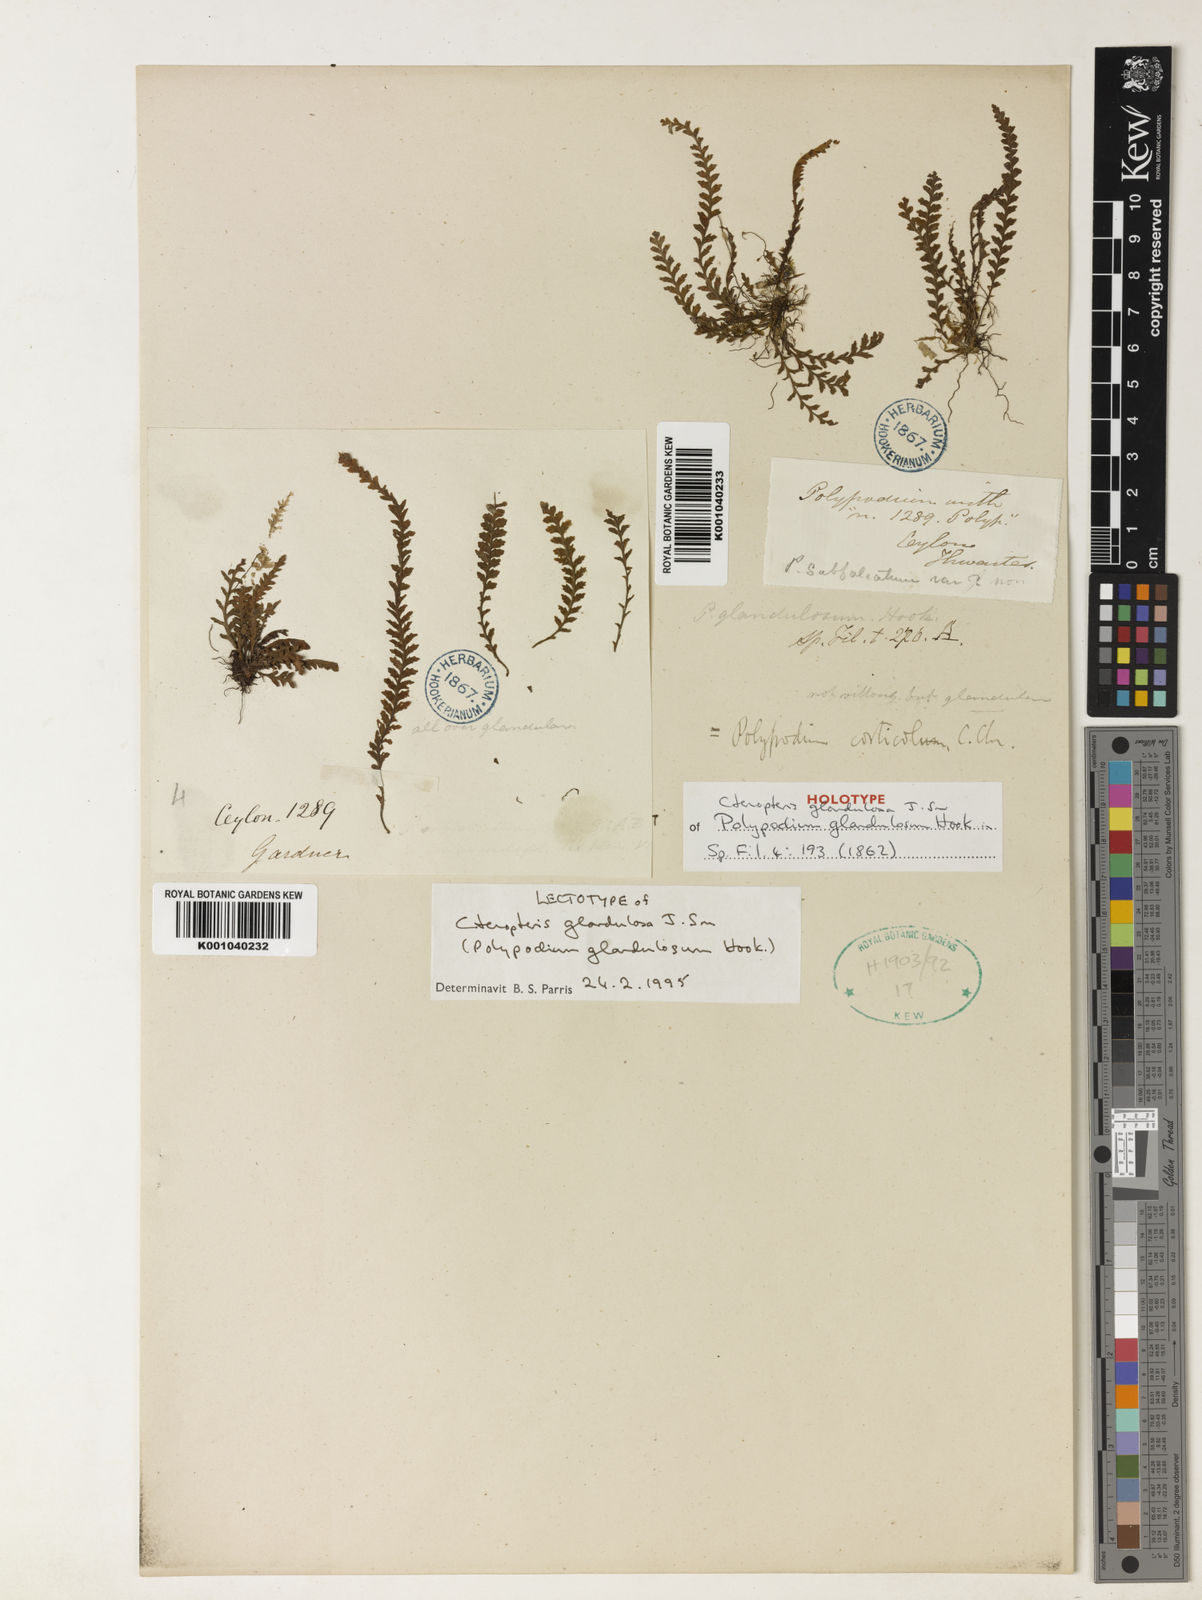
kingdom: Plantae
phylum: Tracheophyta
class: Polypodiopsida
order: Polypodiales
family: Polypodiaceae
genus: Chrysogrammitis
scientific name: Chrysogrammitis glandulosa
